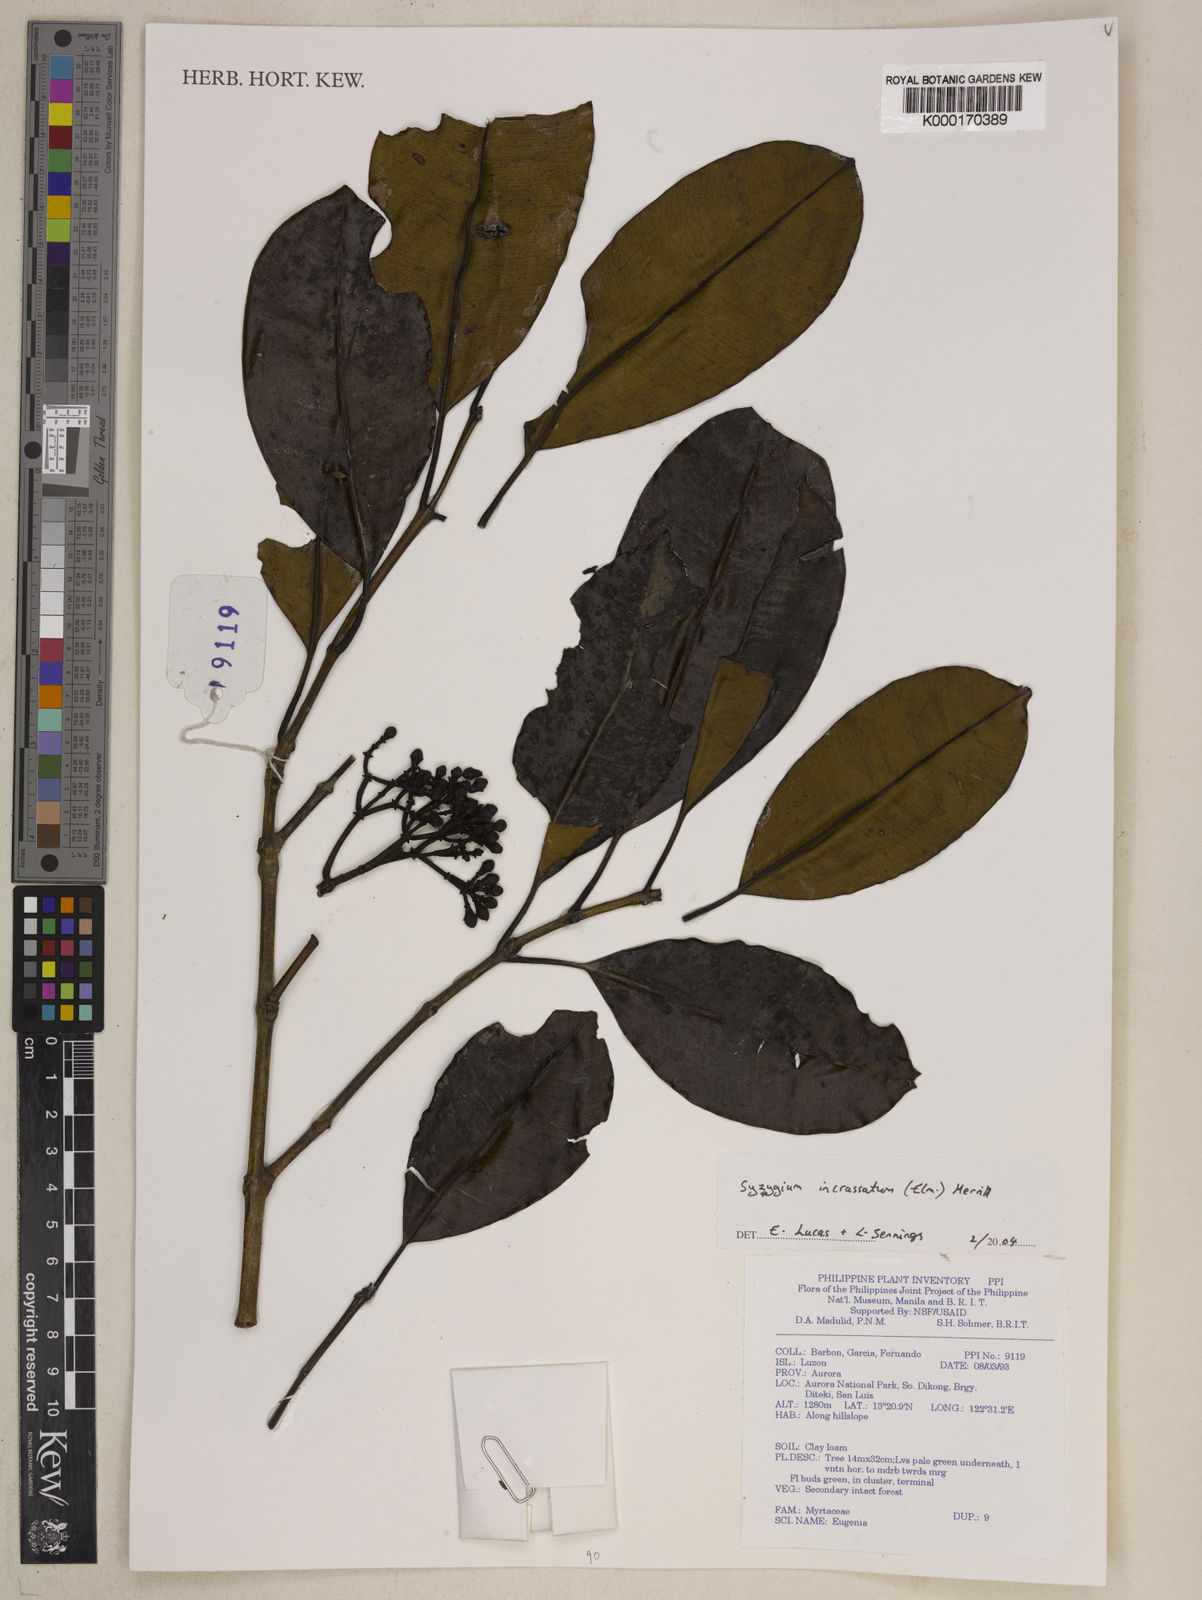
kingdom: Plantae
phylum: Tracheophyta
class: Magnoliopsida
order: Myrtales
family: Myrtaceae
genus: Syzygium
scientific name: Syzygium incrassatum
